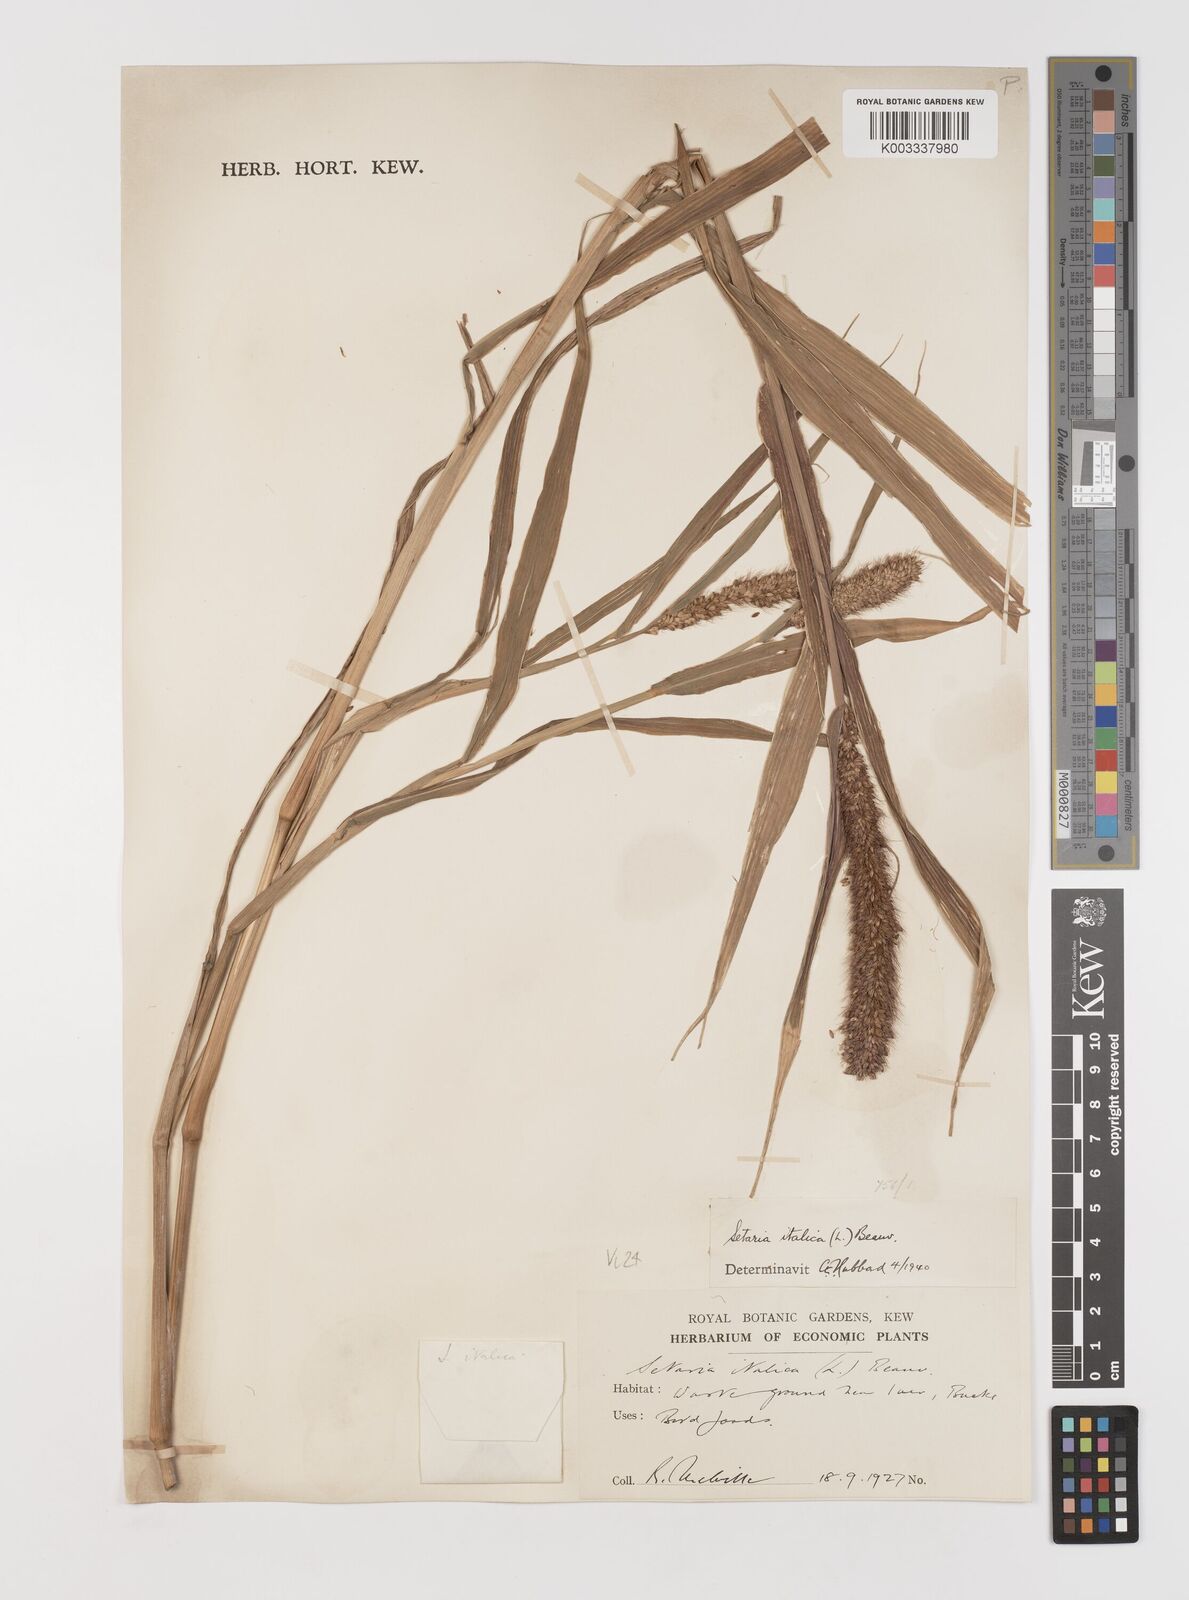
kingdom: Plantae
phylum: Tracheophyta
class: Liliopsida
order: Poales
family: Poaceae
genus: Setaria
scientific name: Setaria italica
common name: Foxtail bristle-grass
